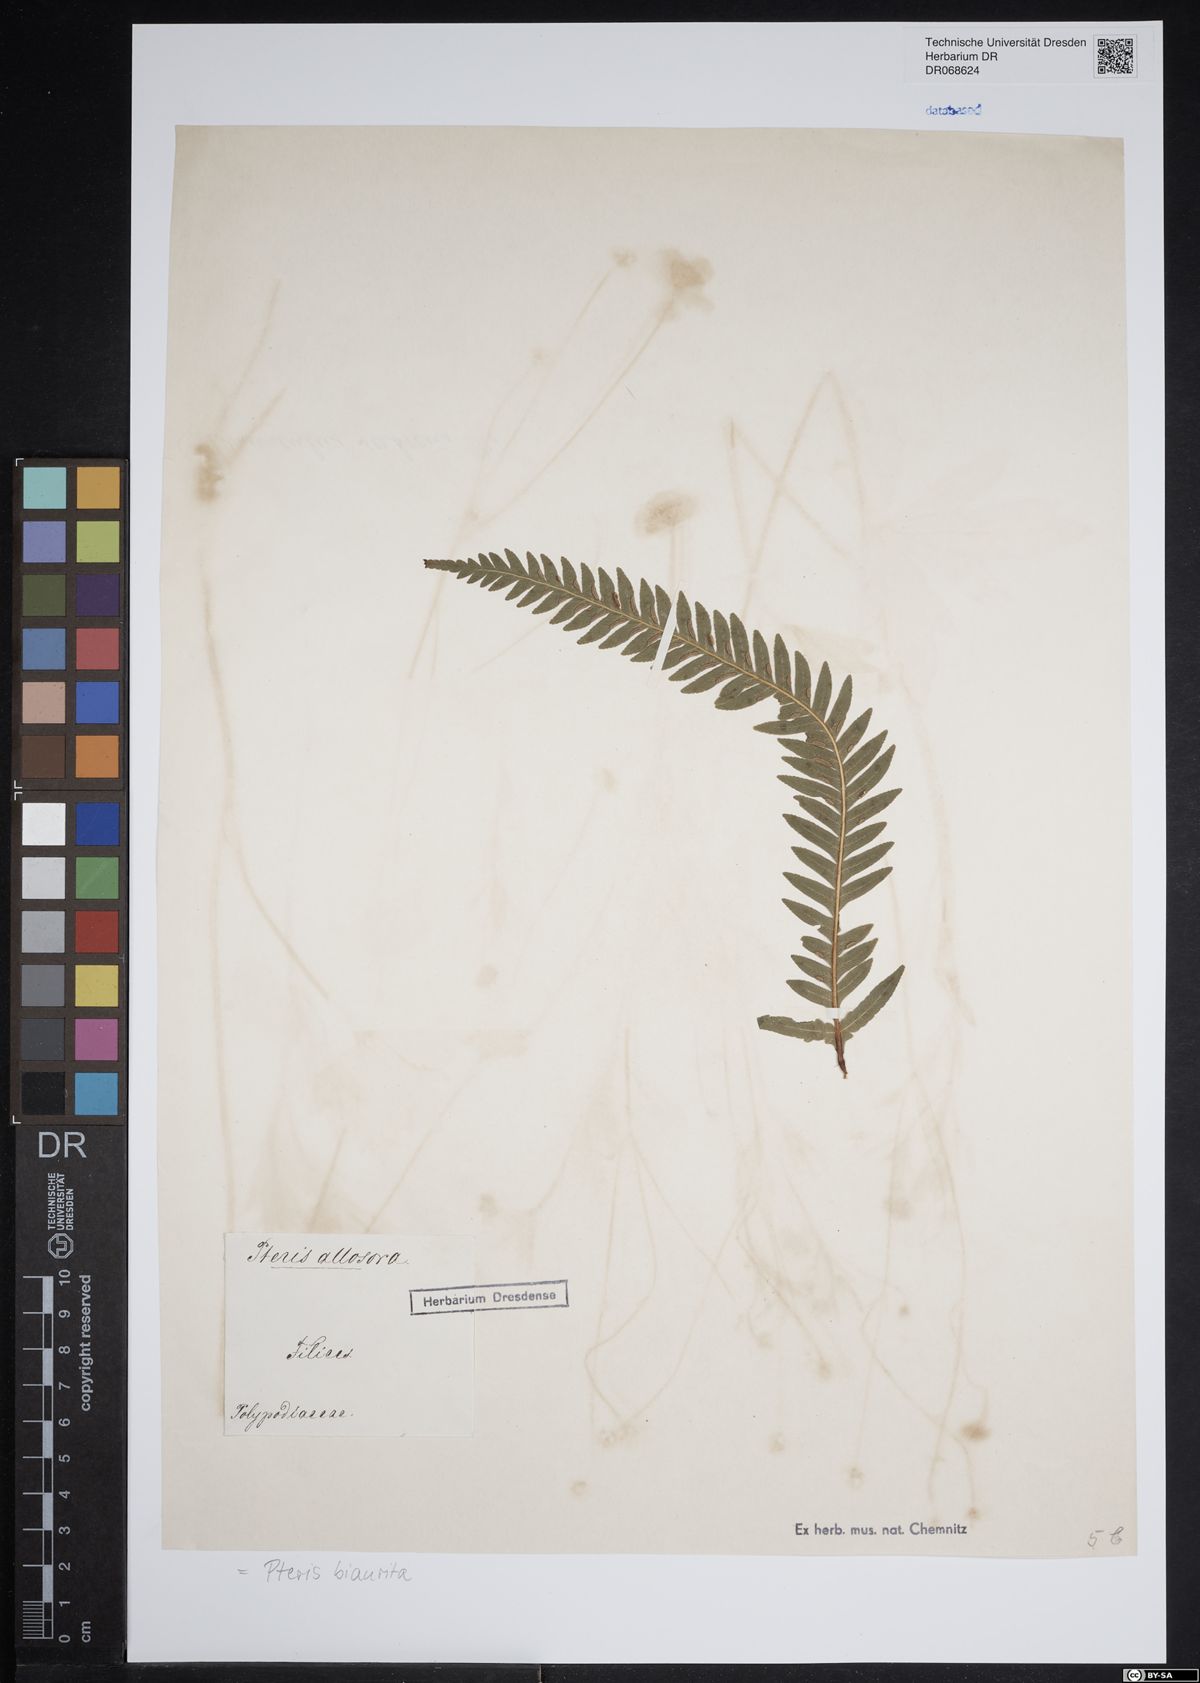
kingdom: Plantae
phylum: Tracheophyta
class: Polypodiopsida
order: Polypodiales
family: Pteridaceae
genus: Pteris
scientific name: Pteris biaurita
